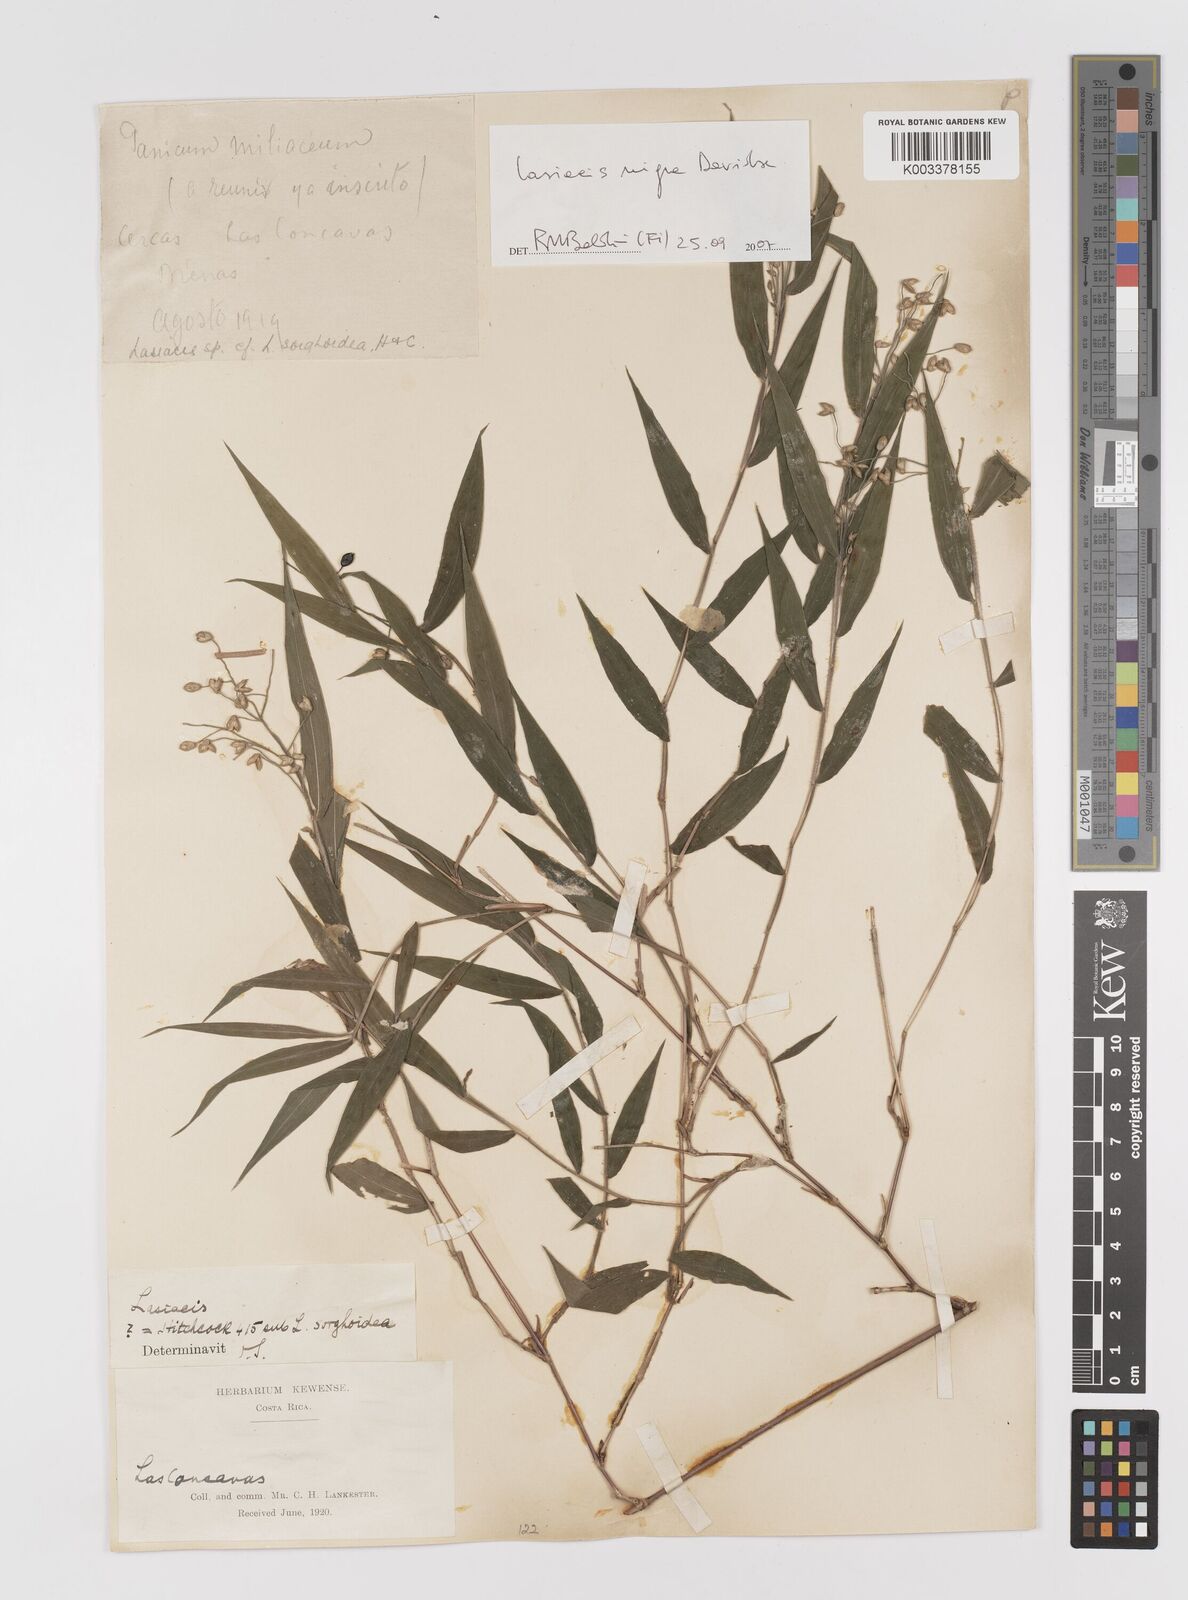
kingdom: Plantae
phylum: Tracheophyta
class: Liliopsida
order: Poales
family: Poaceae
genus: Lasiacis
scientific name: Lasiacis nigra
